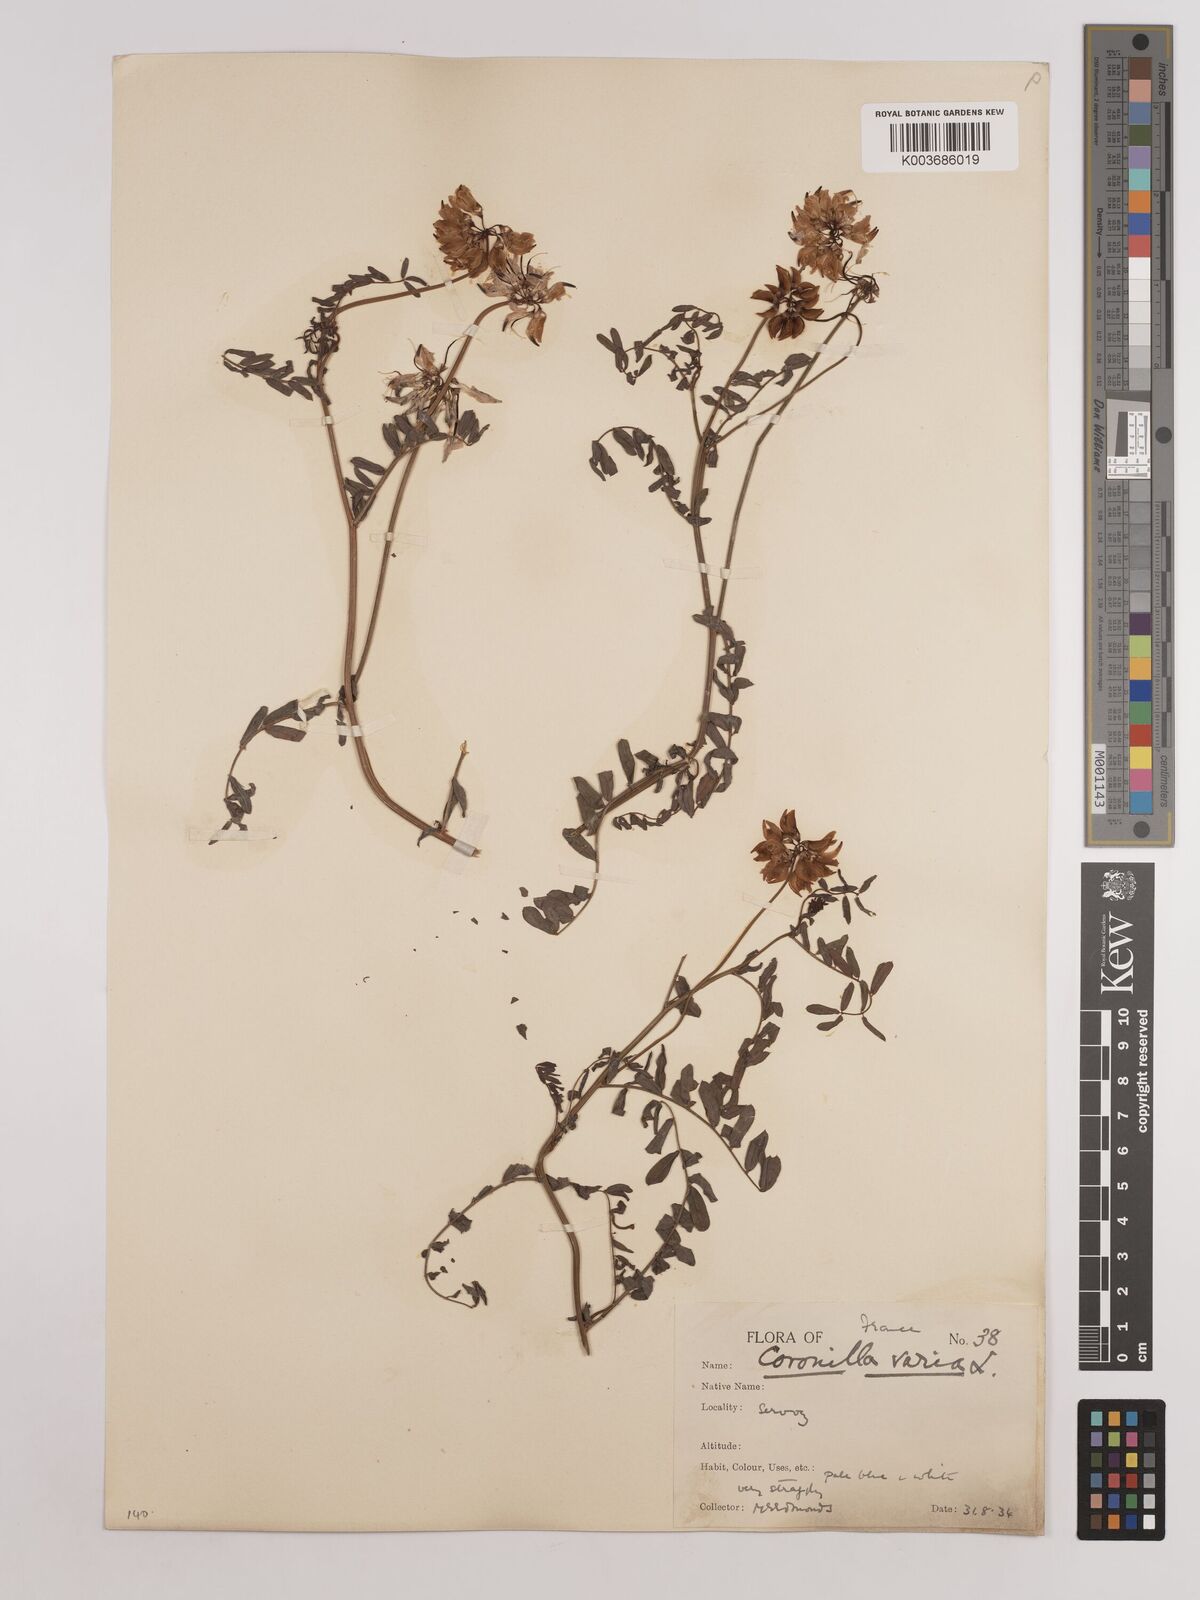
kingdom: Plantae
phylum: Tracheophyta
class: Magnoliopsida
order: Fabales
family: Fabaceae
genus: Coronilla
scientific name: Coronilla varia
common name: Crownvetch
